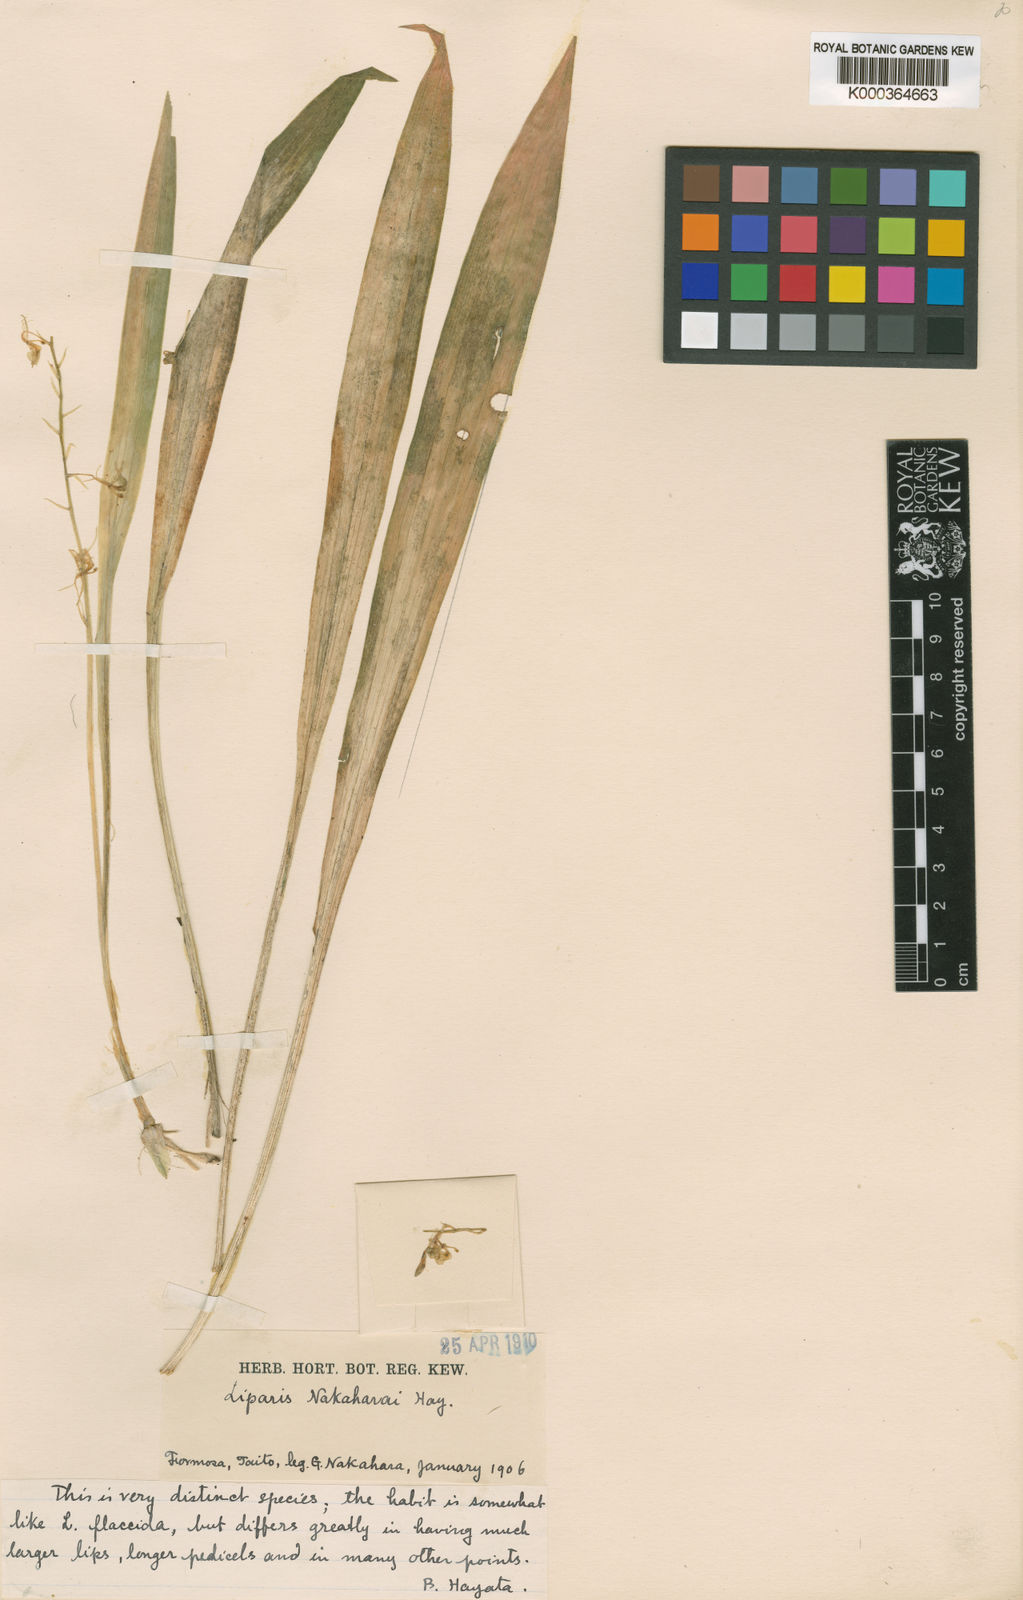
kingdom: Plantae
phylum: Tracheophyta
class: Liliopsida
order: Asparagales
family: Orchidaceae
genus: Liparis
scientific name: Liparis
